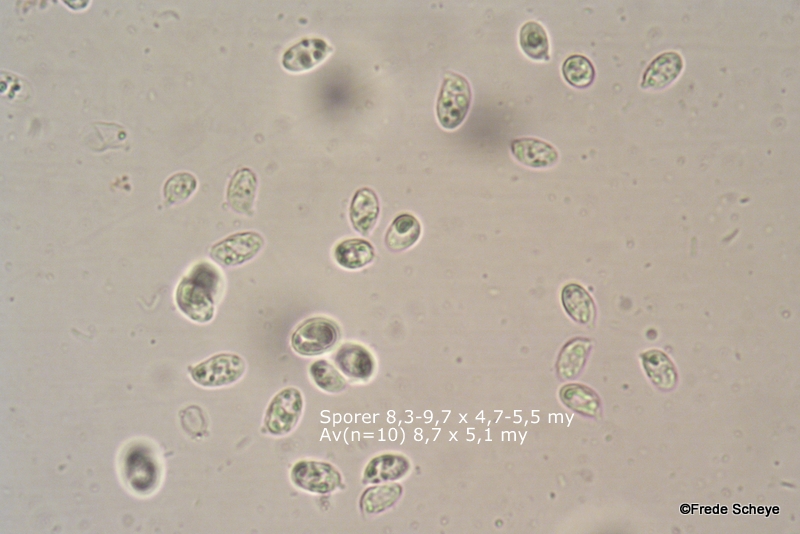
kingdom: Fungi
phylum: Basidiomycota
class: Agaricomycetes
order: Agaricales
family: Hygrophoraceae
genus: Hygrophorus
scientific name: Hygrophorus hypothejus
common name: frost-sneglehat
